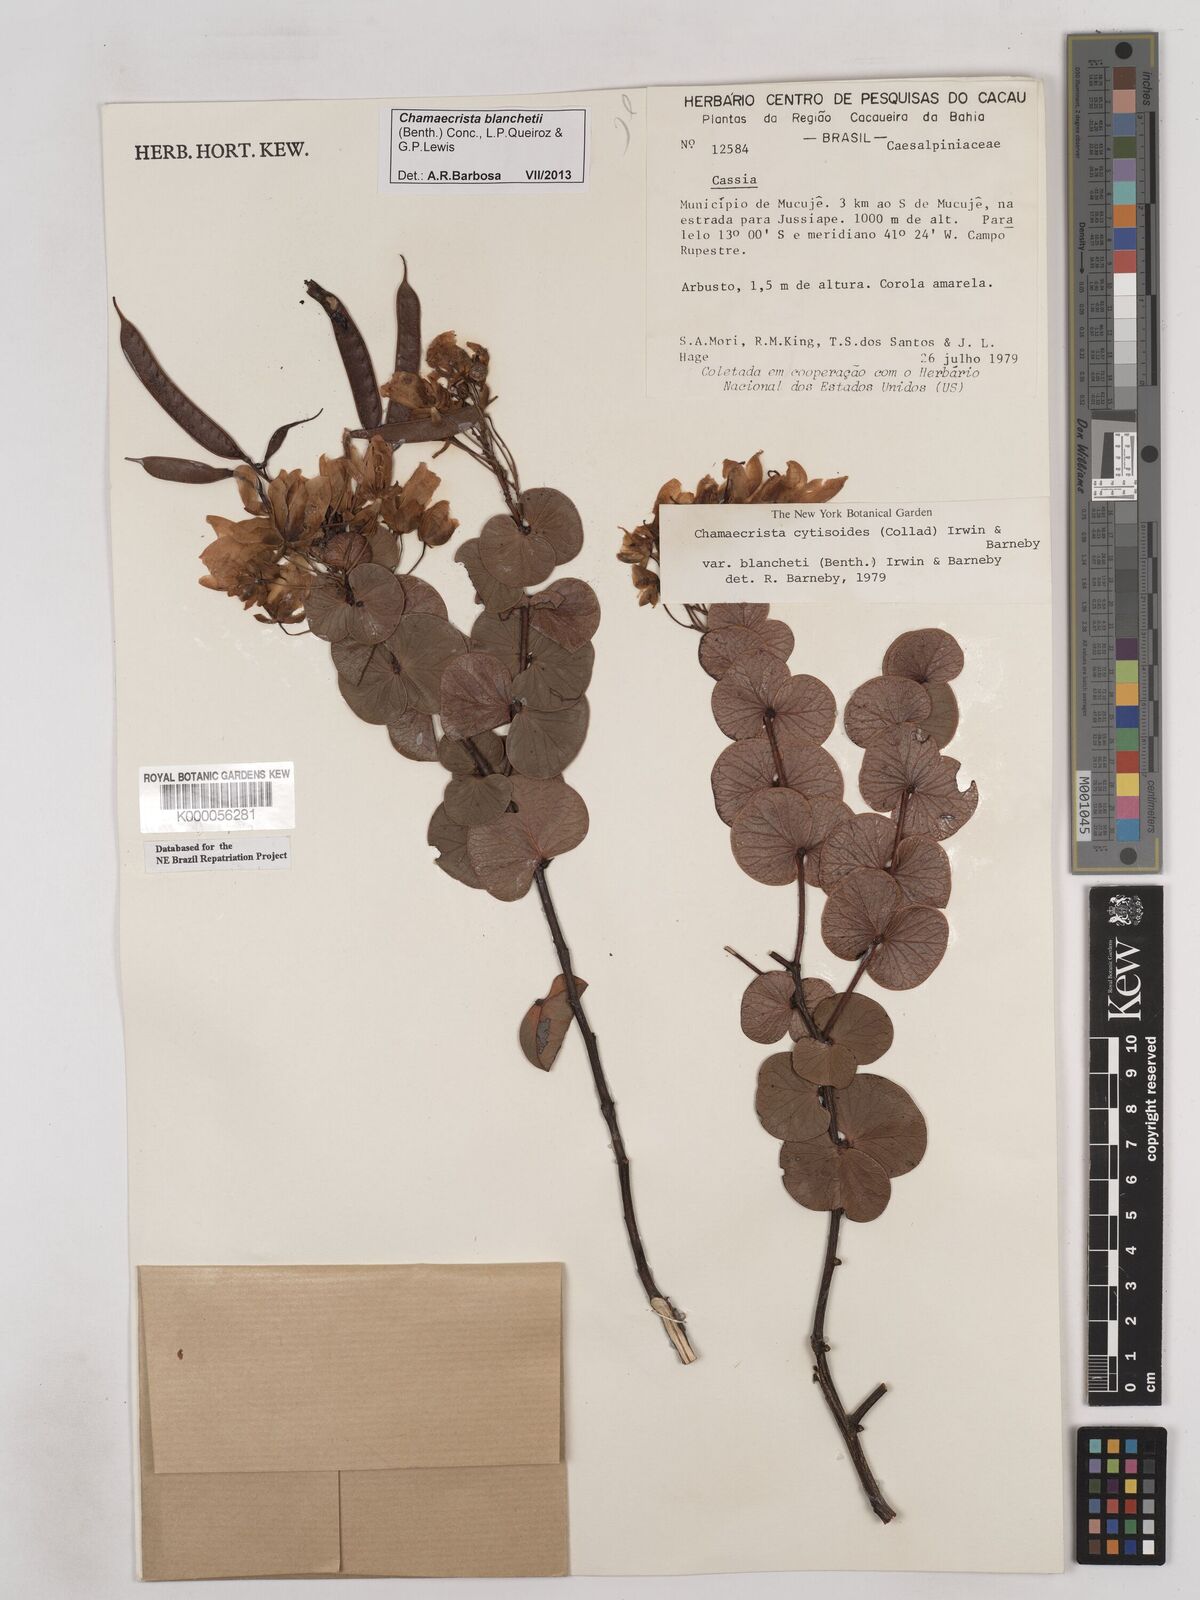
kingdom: Plantae
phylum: Tracheophyta
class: Magnoliopsida
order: Fabales
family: Fabaceae
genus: Chamaecrista
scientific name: Chamaecrista cytisoides
